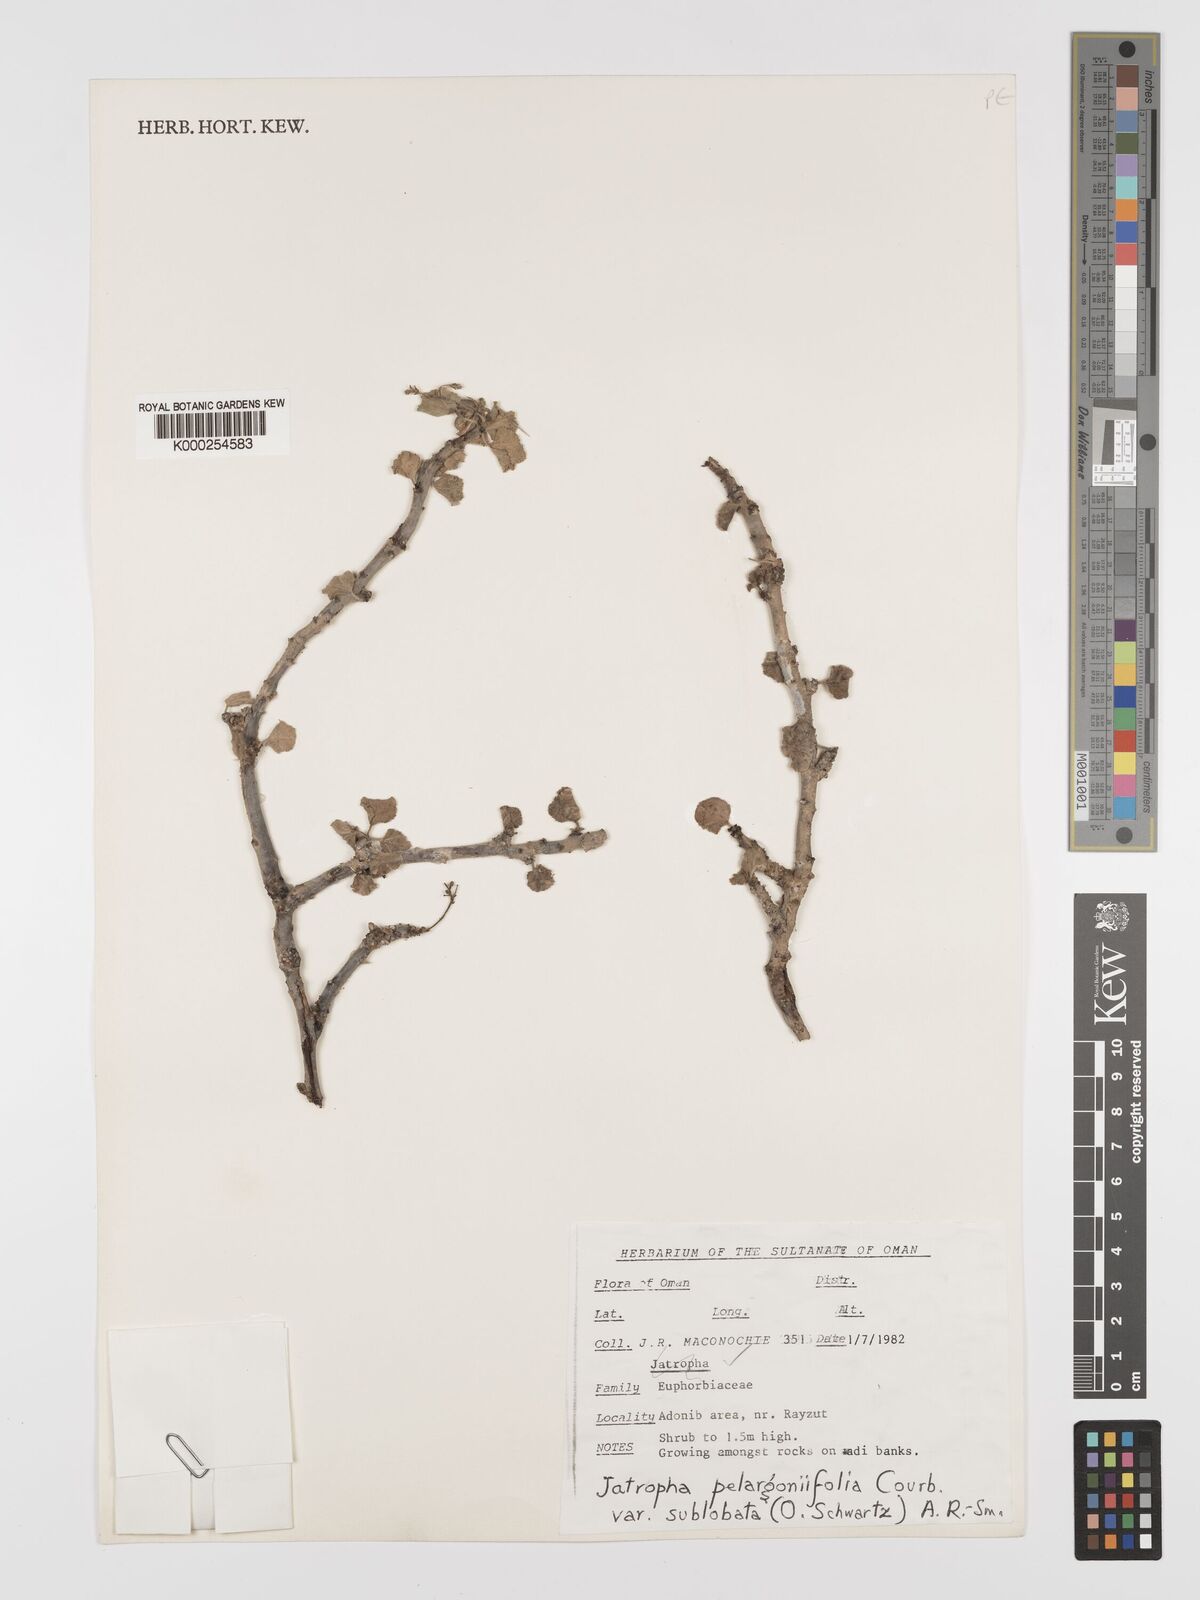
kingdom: Plantae
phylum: Tracheophyta
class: Magnoliopsida
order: Malpighiales
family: Euphorbiaceae
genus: Jatropha
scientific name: Jatropha pelargoniifolia
